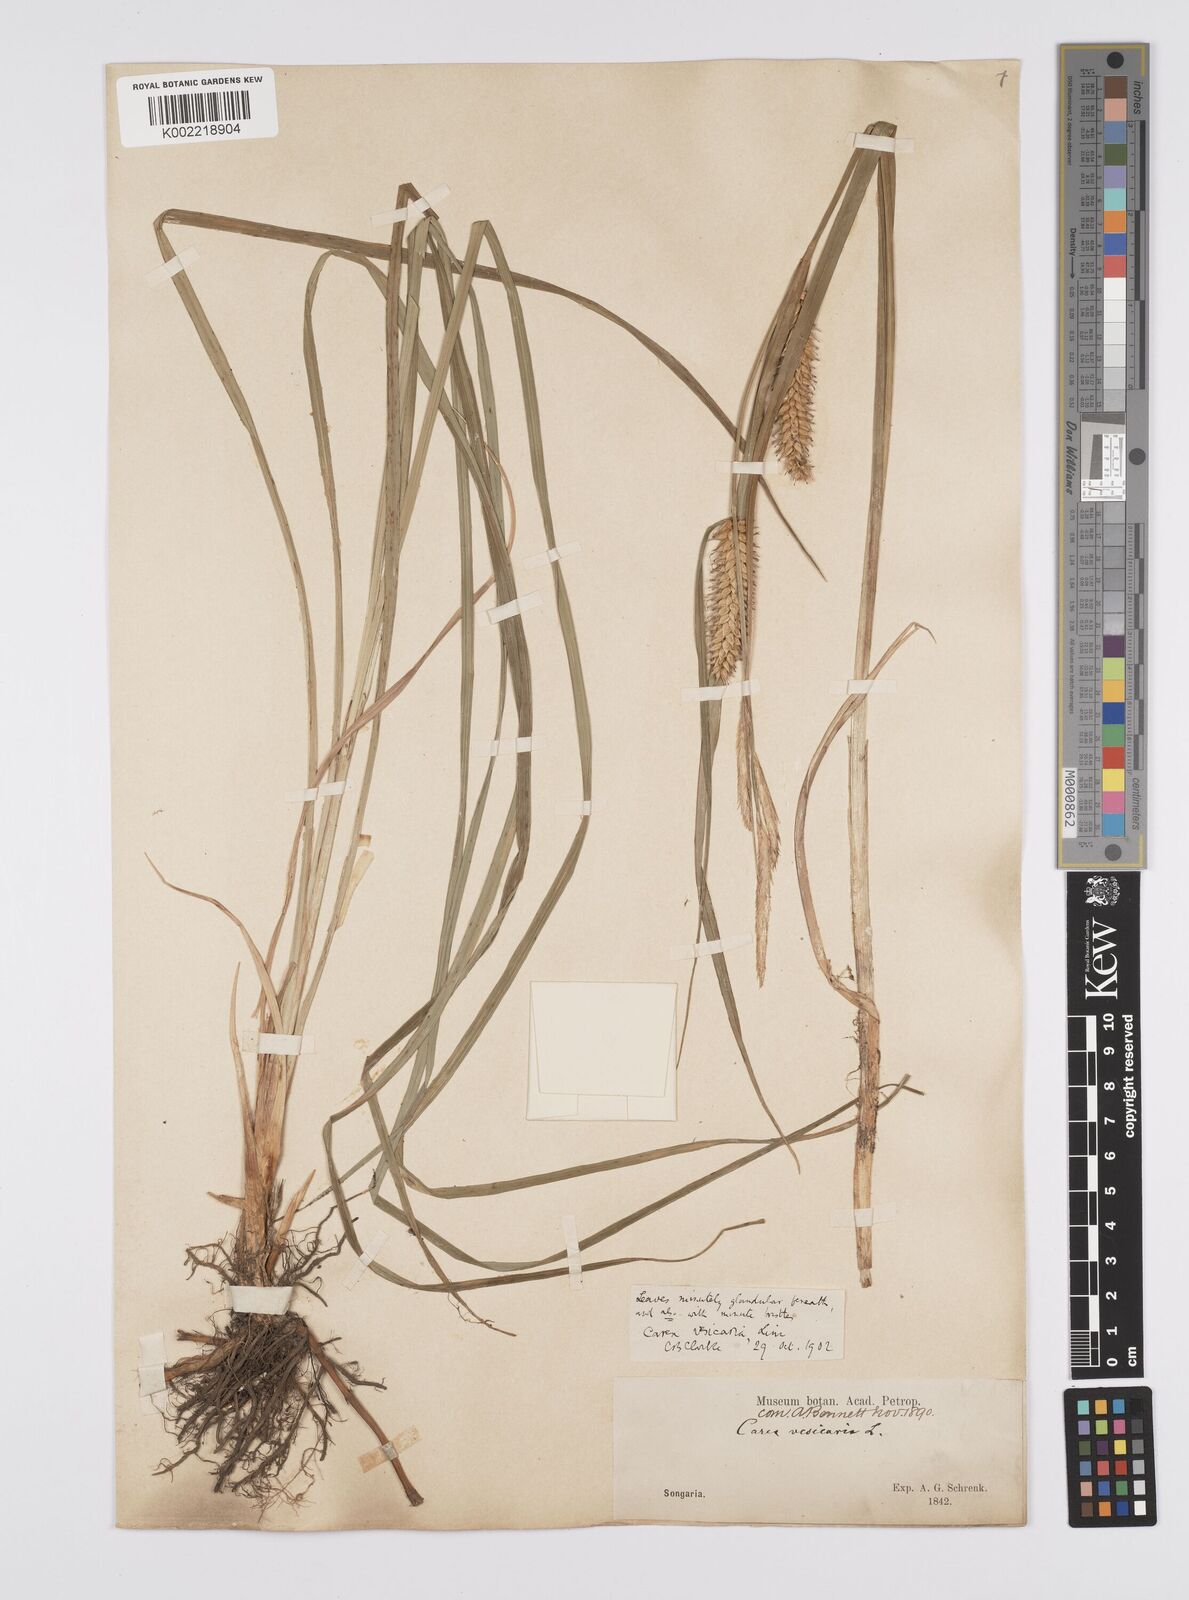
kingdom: Plantae
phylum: Tracheophyta
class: Liliopsida
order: Poales
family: Cyperaceae
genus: Carex
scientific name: Carex vesicaria
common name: Bladder-sedge
